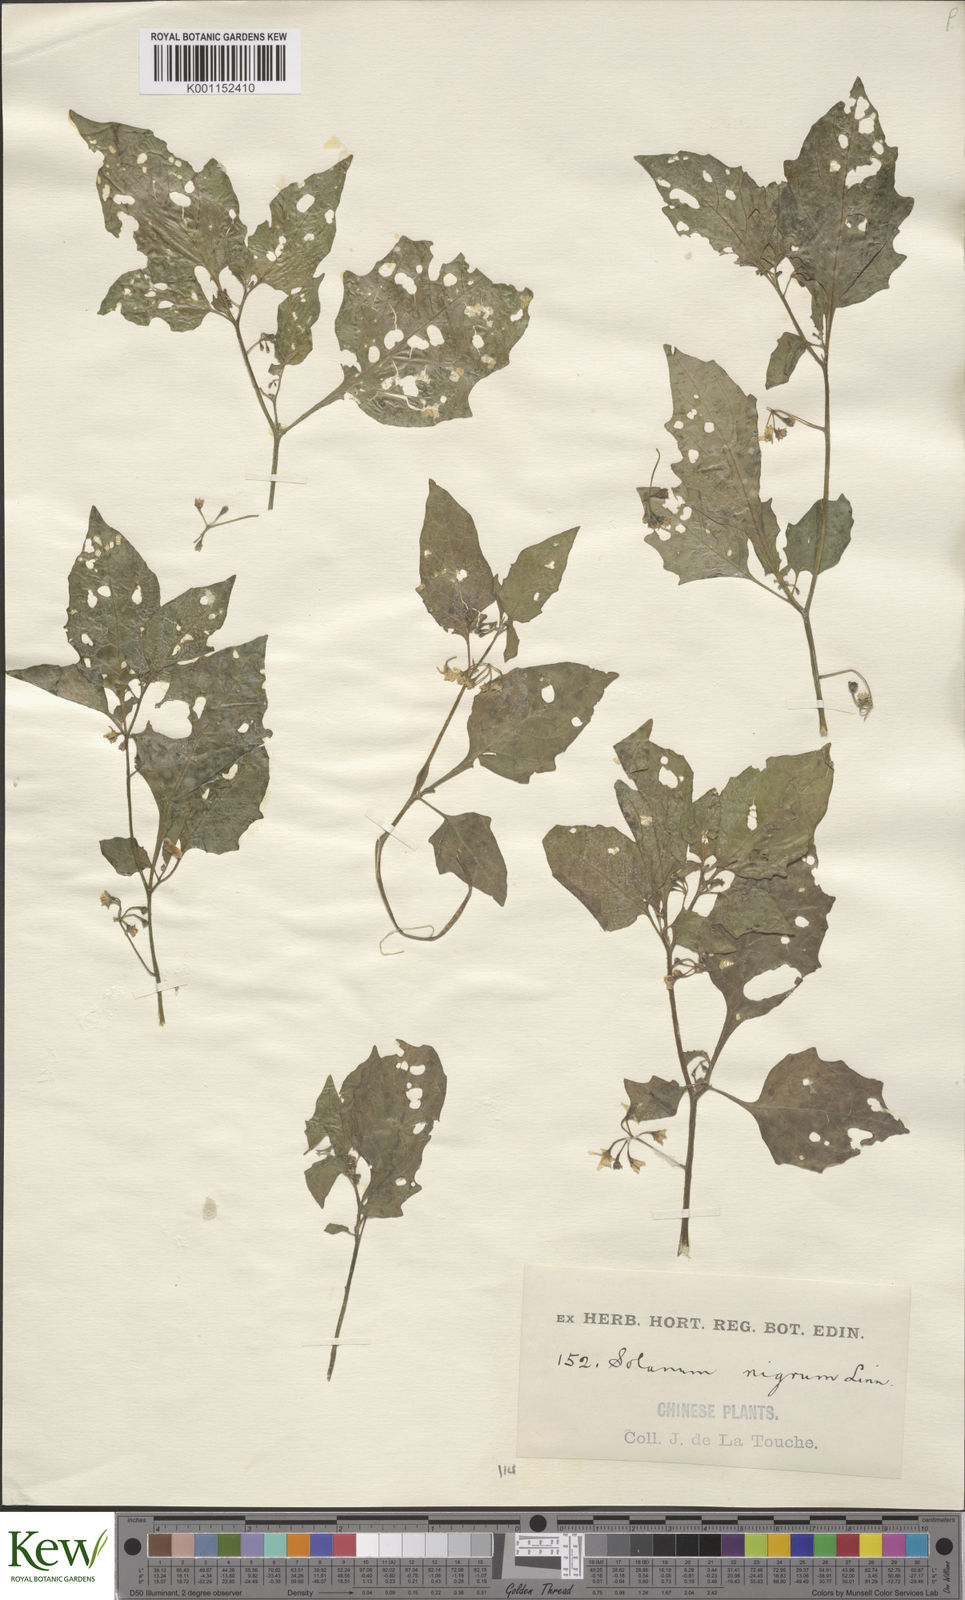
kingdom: Plantae
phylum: Tracheophyta
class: Magnoliopsida
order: Solanales
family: Solanaceae
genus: Solanum
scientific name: Solanum scabrum
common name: Garden-huckleberry
